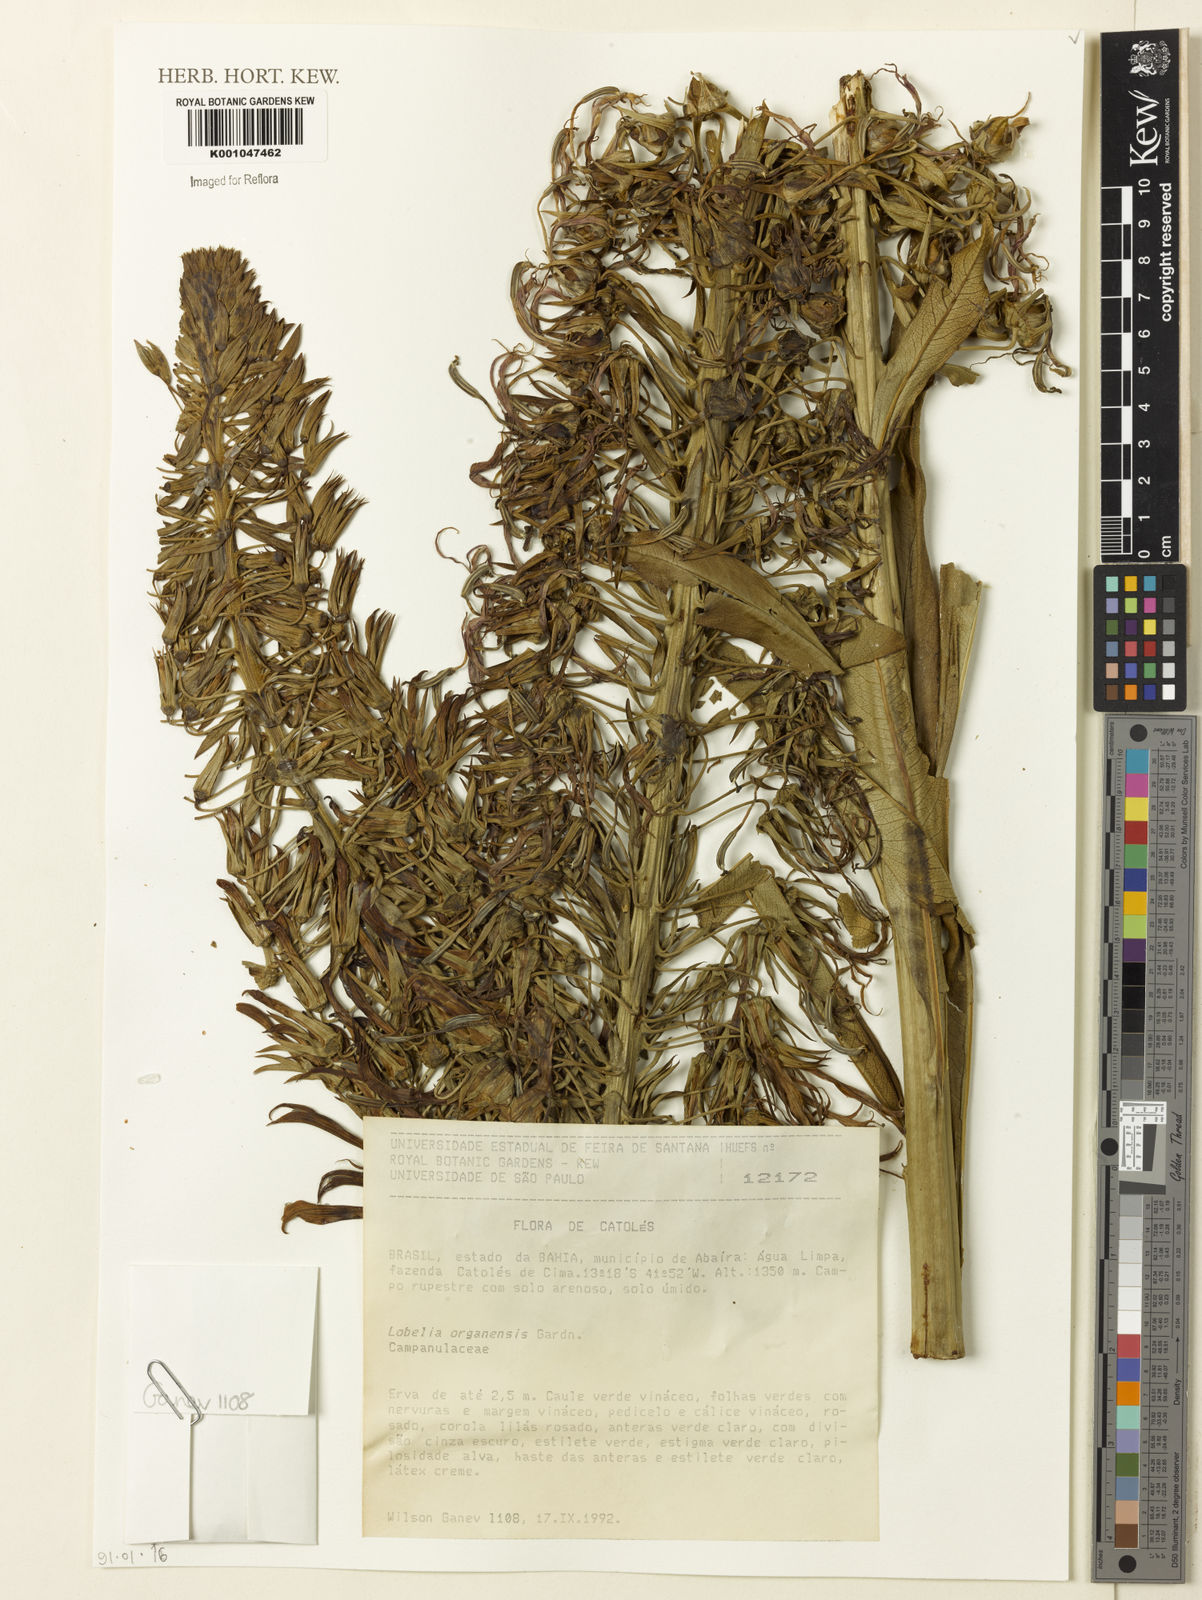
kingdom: Plantae
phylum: Tracheophyta
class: Magnoliopsida
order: Asterales
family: Campanulaceae
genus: Lobelia
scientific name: Lobelia organensis
